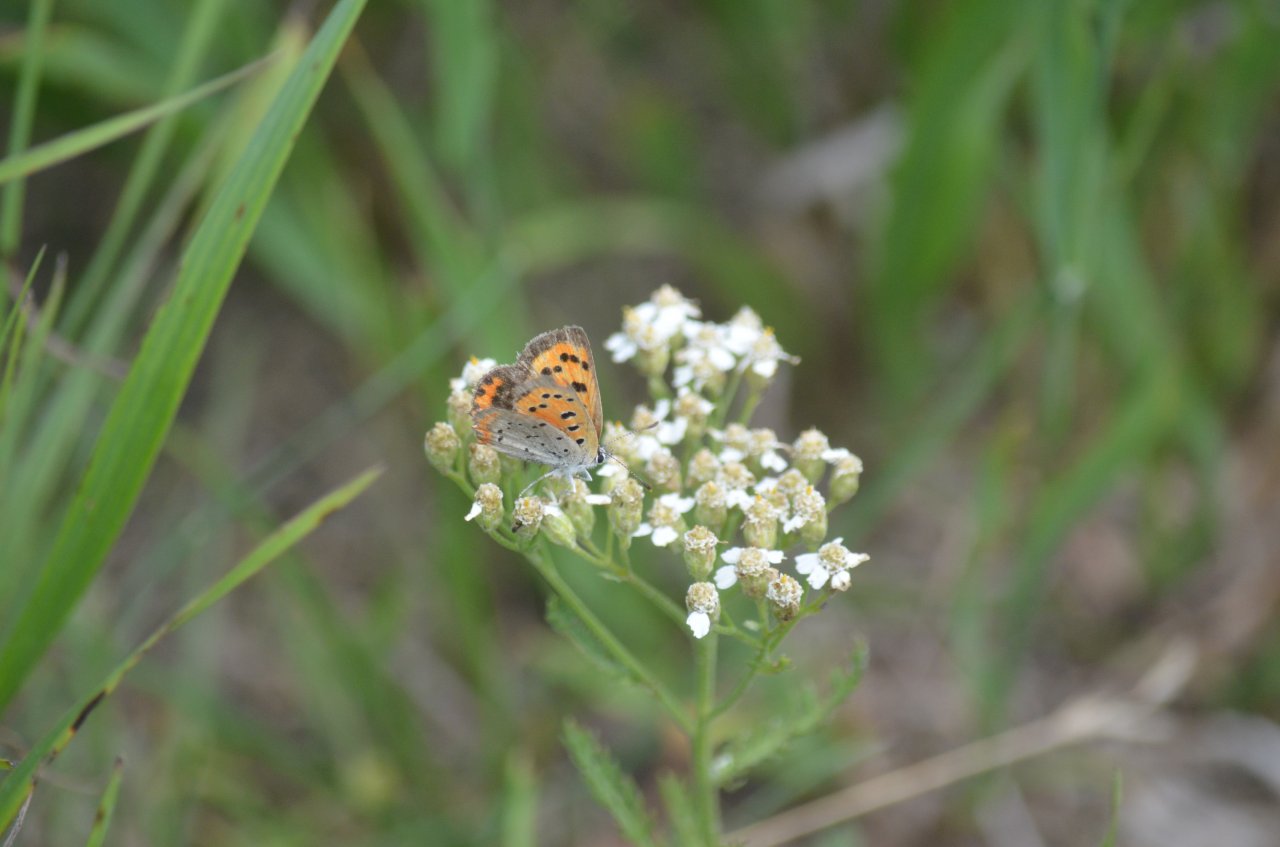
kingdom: Animalia
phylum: Arthropoda
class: Insecta
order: Lepidoptera
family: Lycaenidae
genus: Lycaena
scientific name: Lycaena phlaeas
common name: American Copper
